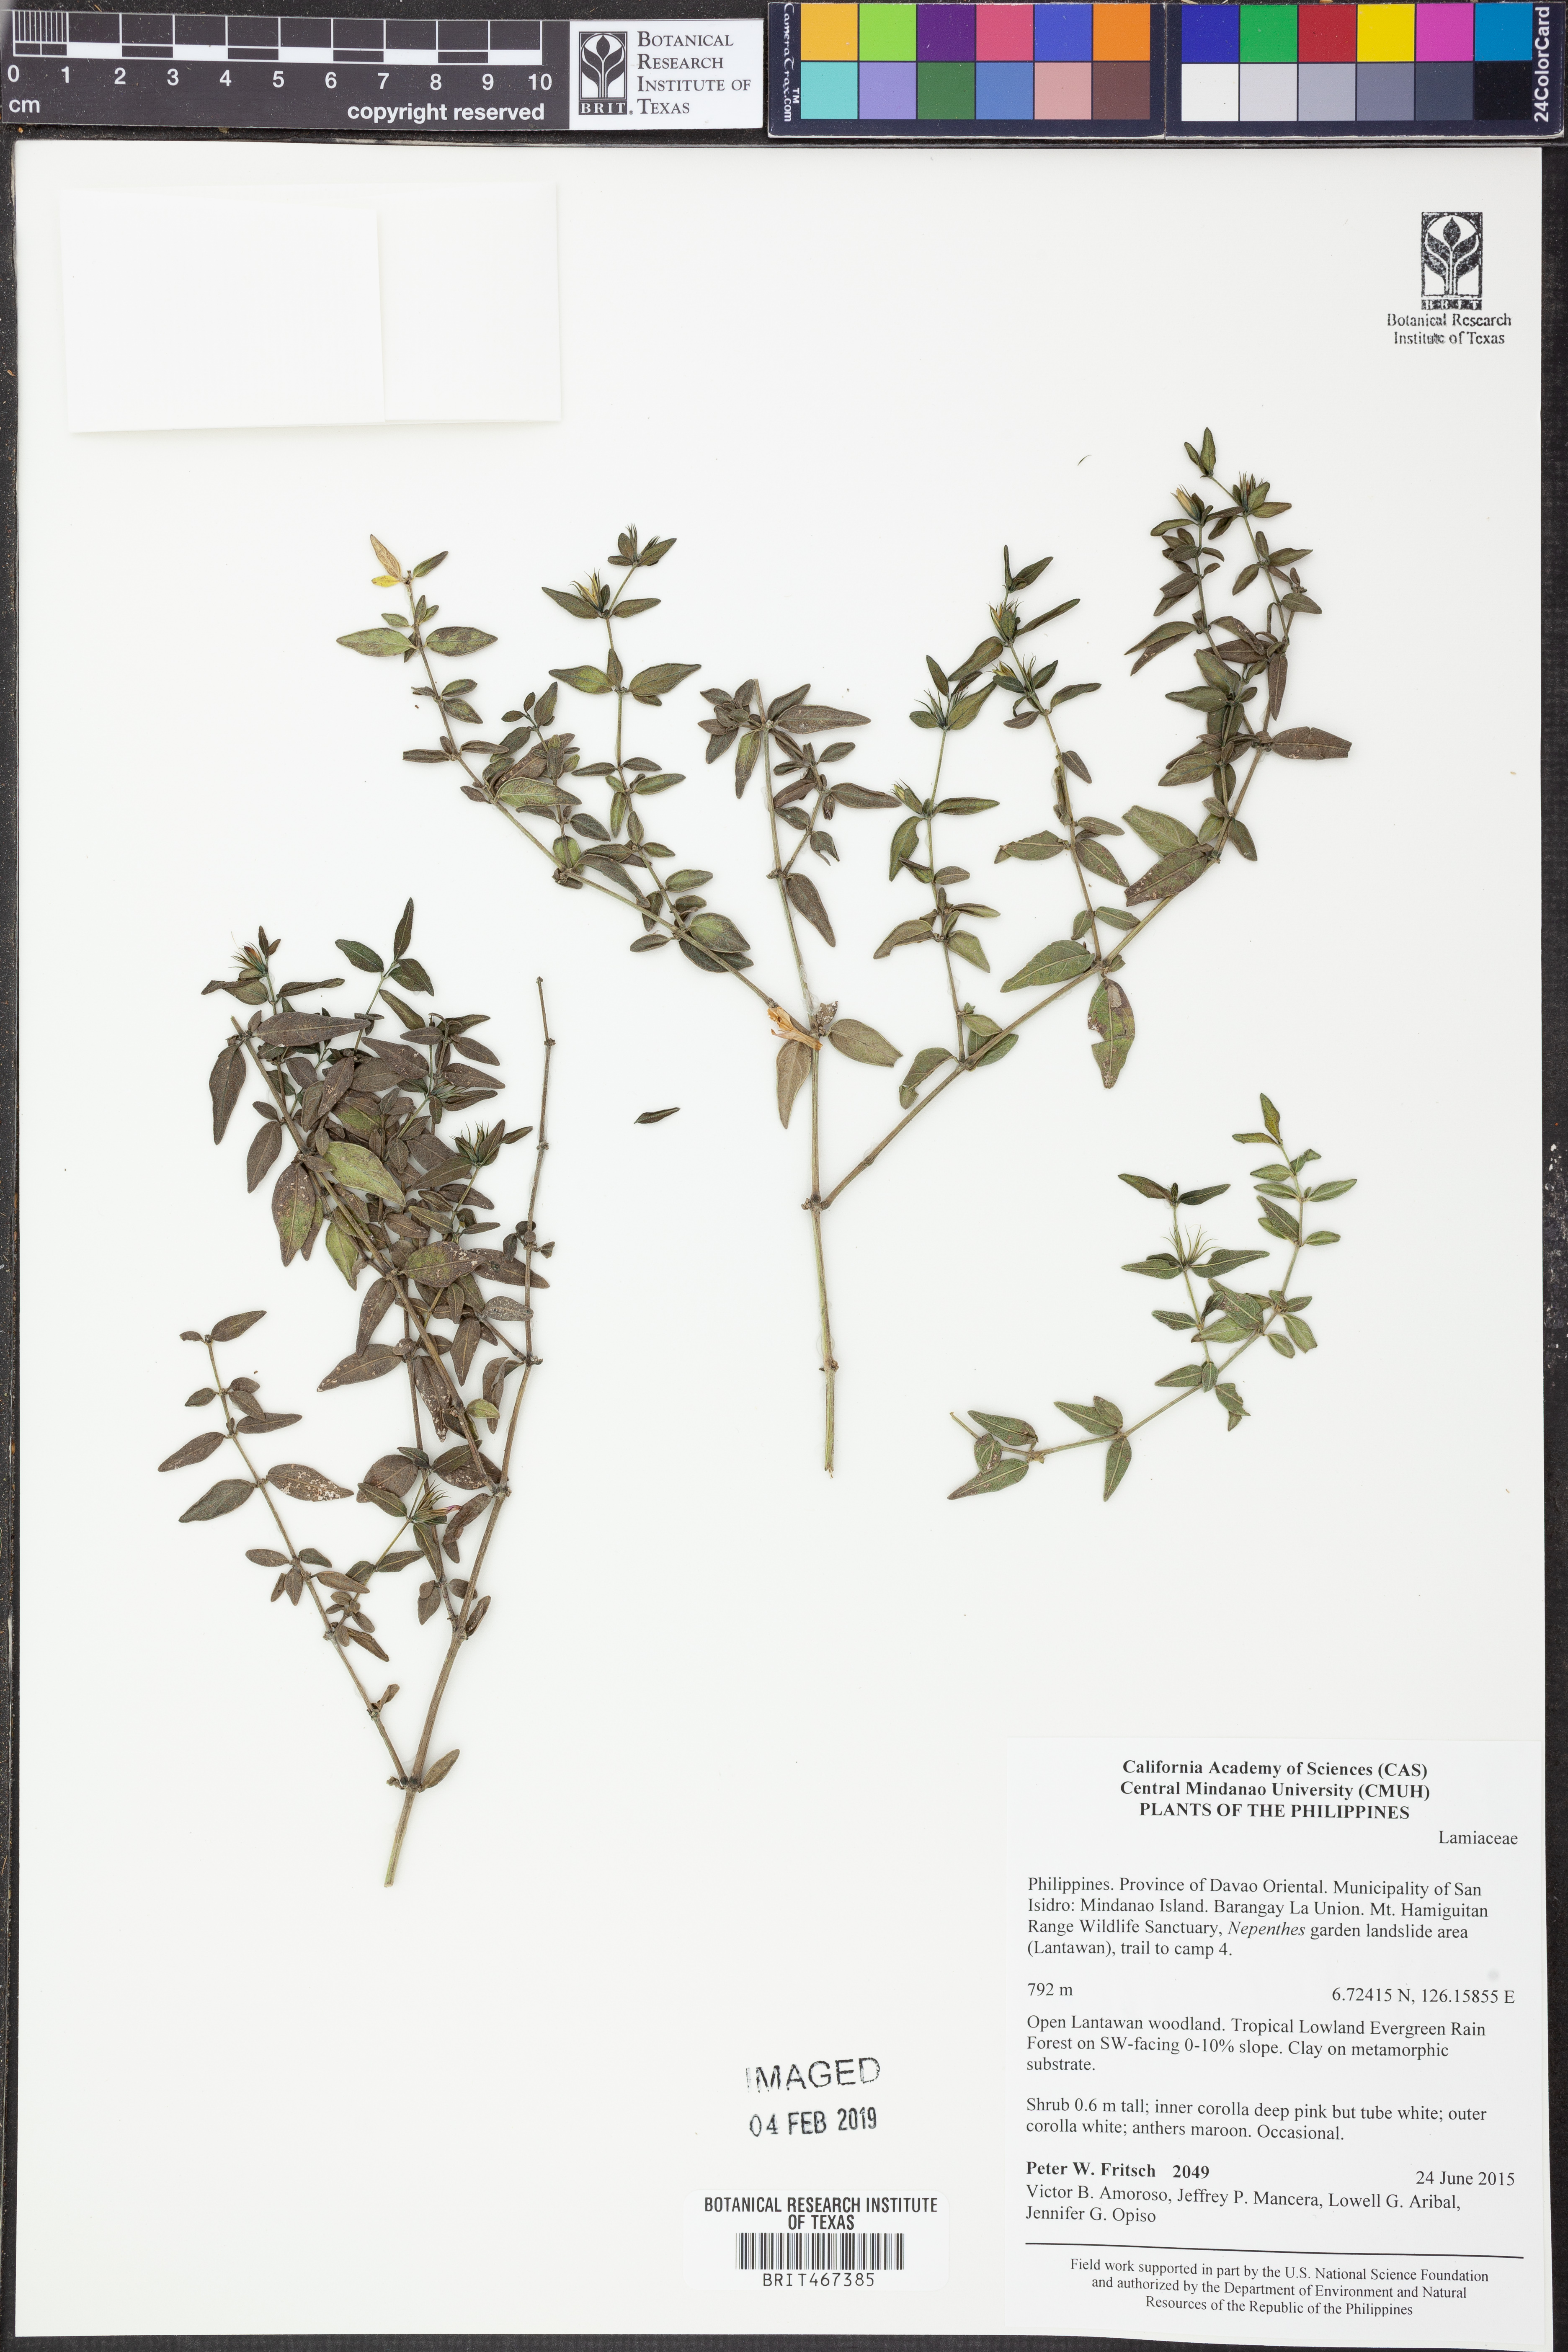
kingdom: Plantae
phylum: Tracheophyta
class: Magnoliopsida
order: Lamiales
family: Lamiaceae
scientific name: Lamiaceae
